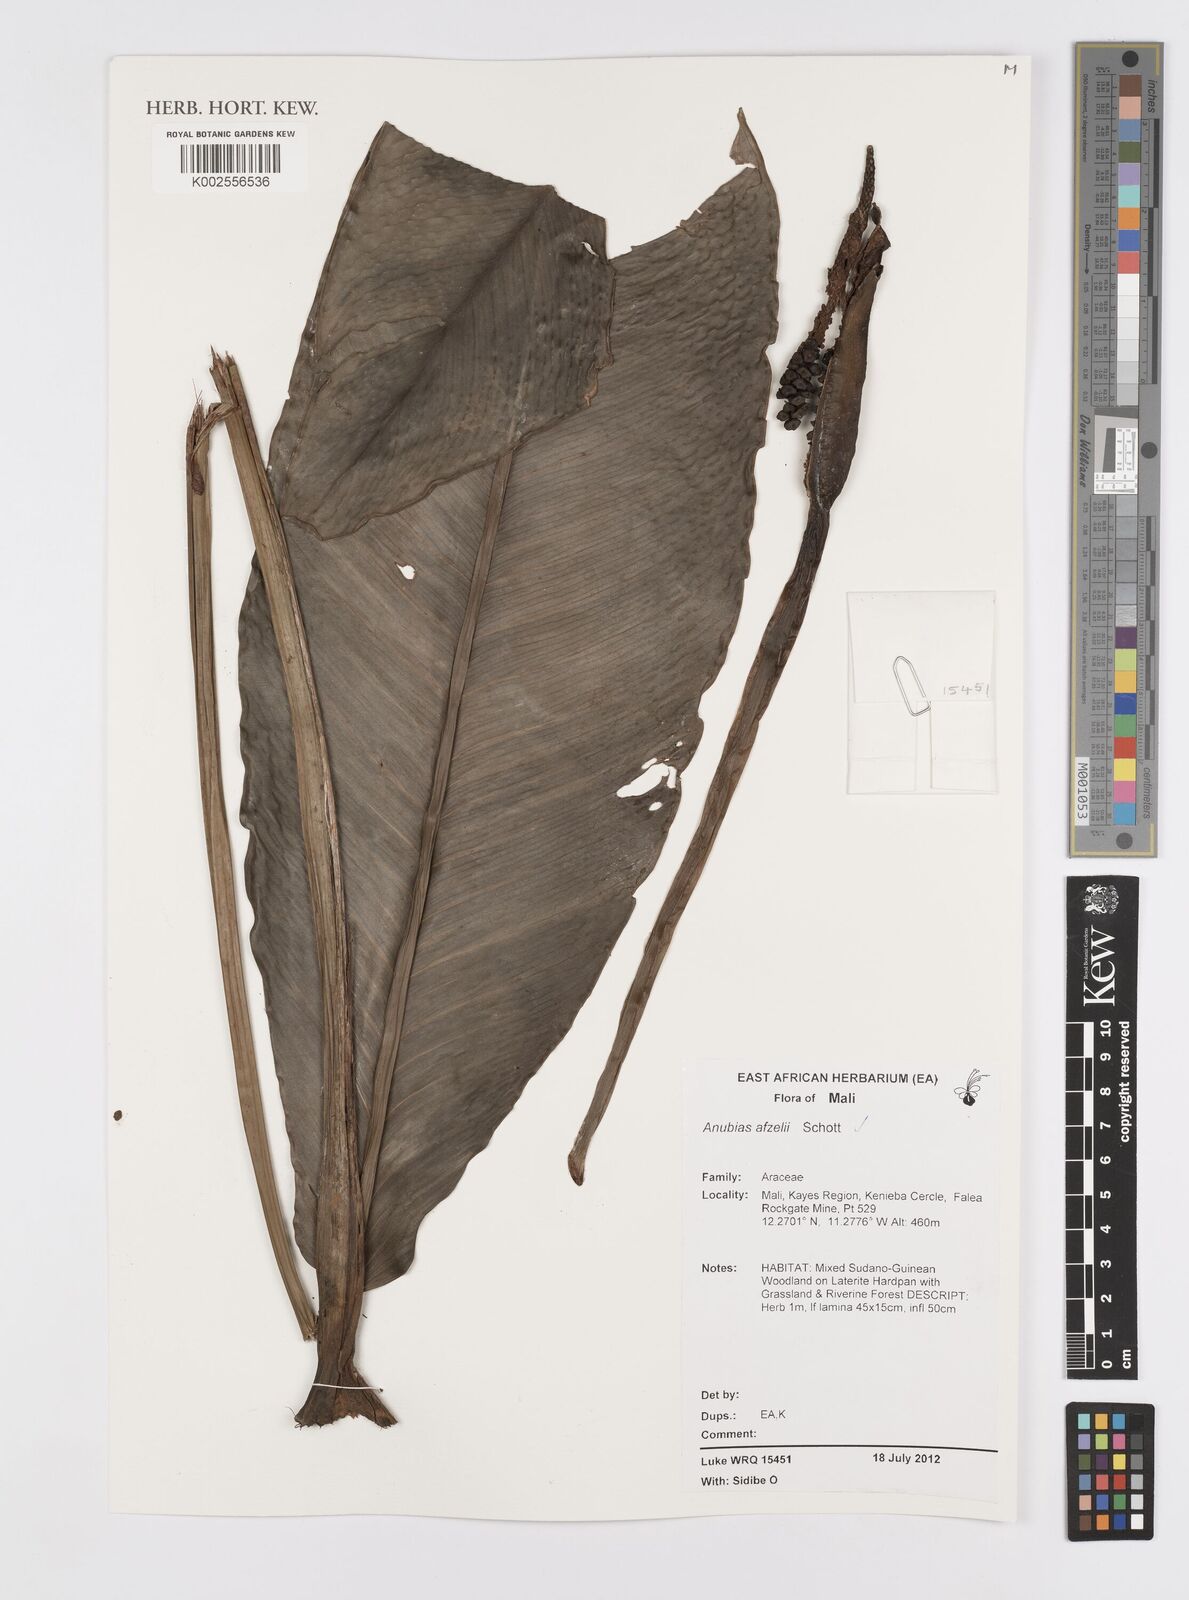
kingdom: Plantae
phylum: Tracheophyta
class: Liliopsida
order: Alismatales
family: Araceae
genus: Anubias
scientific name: Anubias afzelii
